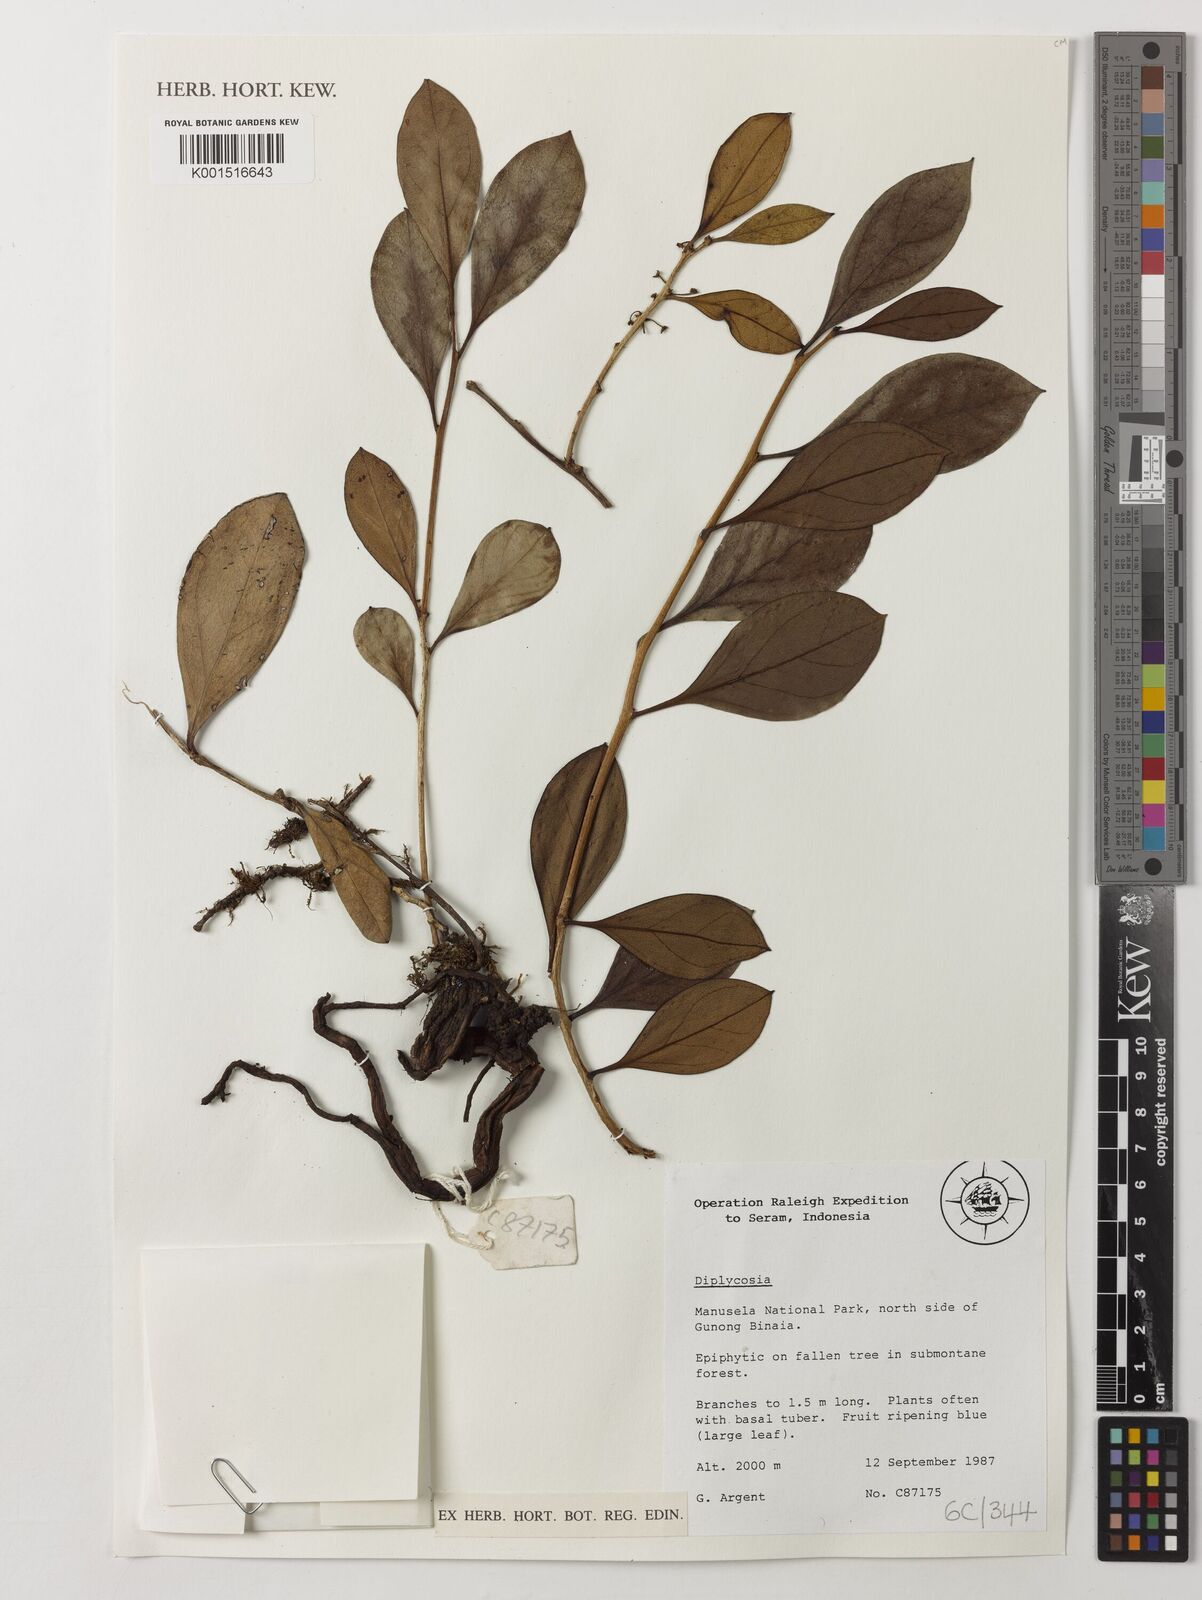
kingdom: Plantae
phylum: Tracheophyta
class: Magnoliopsida
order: Ericales
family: Ericaceae
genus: Gaultheria
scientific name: Gaultheria
